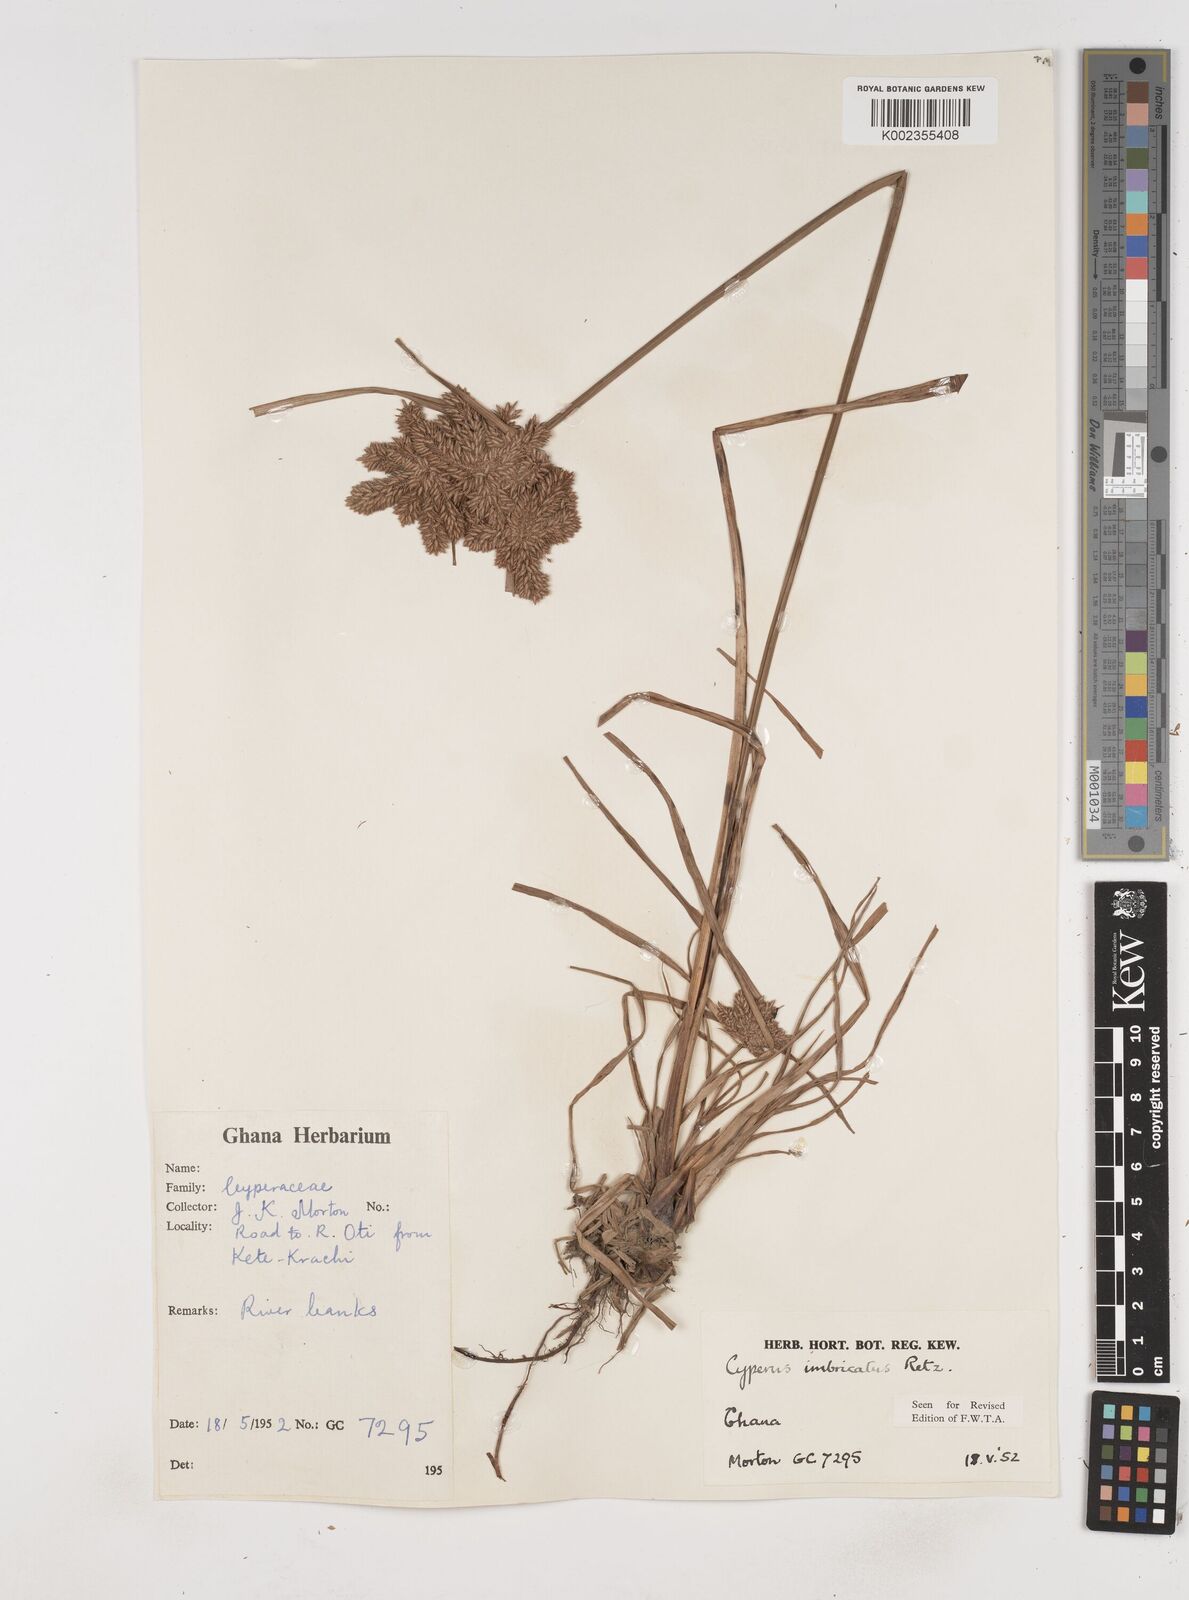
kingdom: Plantae
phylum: Tracheophyta
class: Liliopsida
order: Poales
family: Cyperaceae
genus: Cyperus
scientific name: Cyperus imbricatus
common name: Shingle flatsedge
